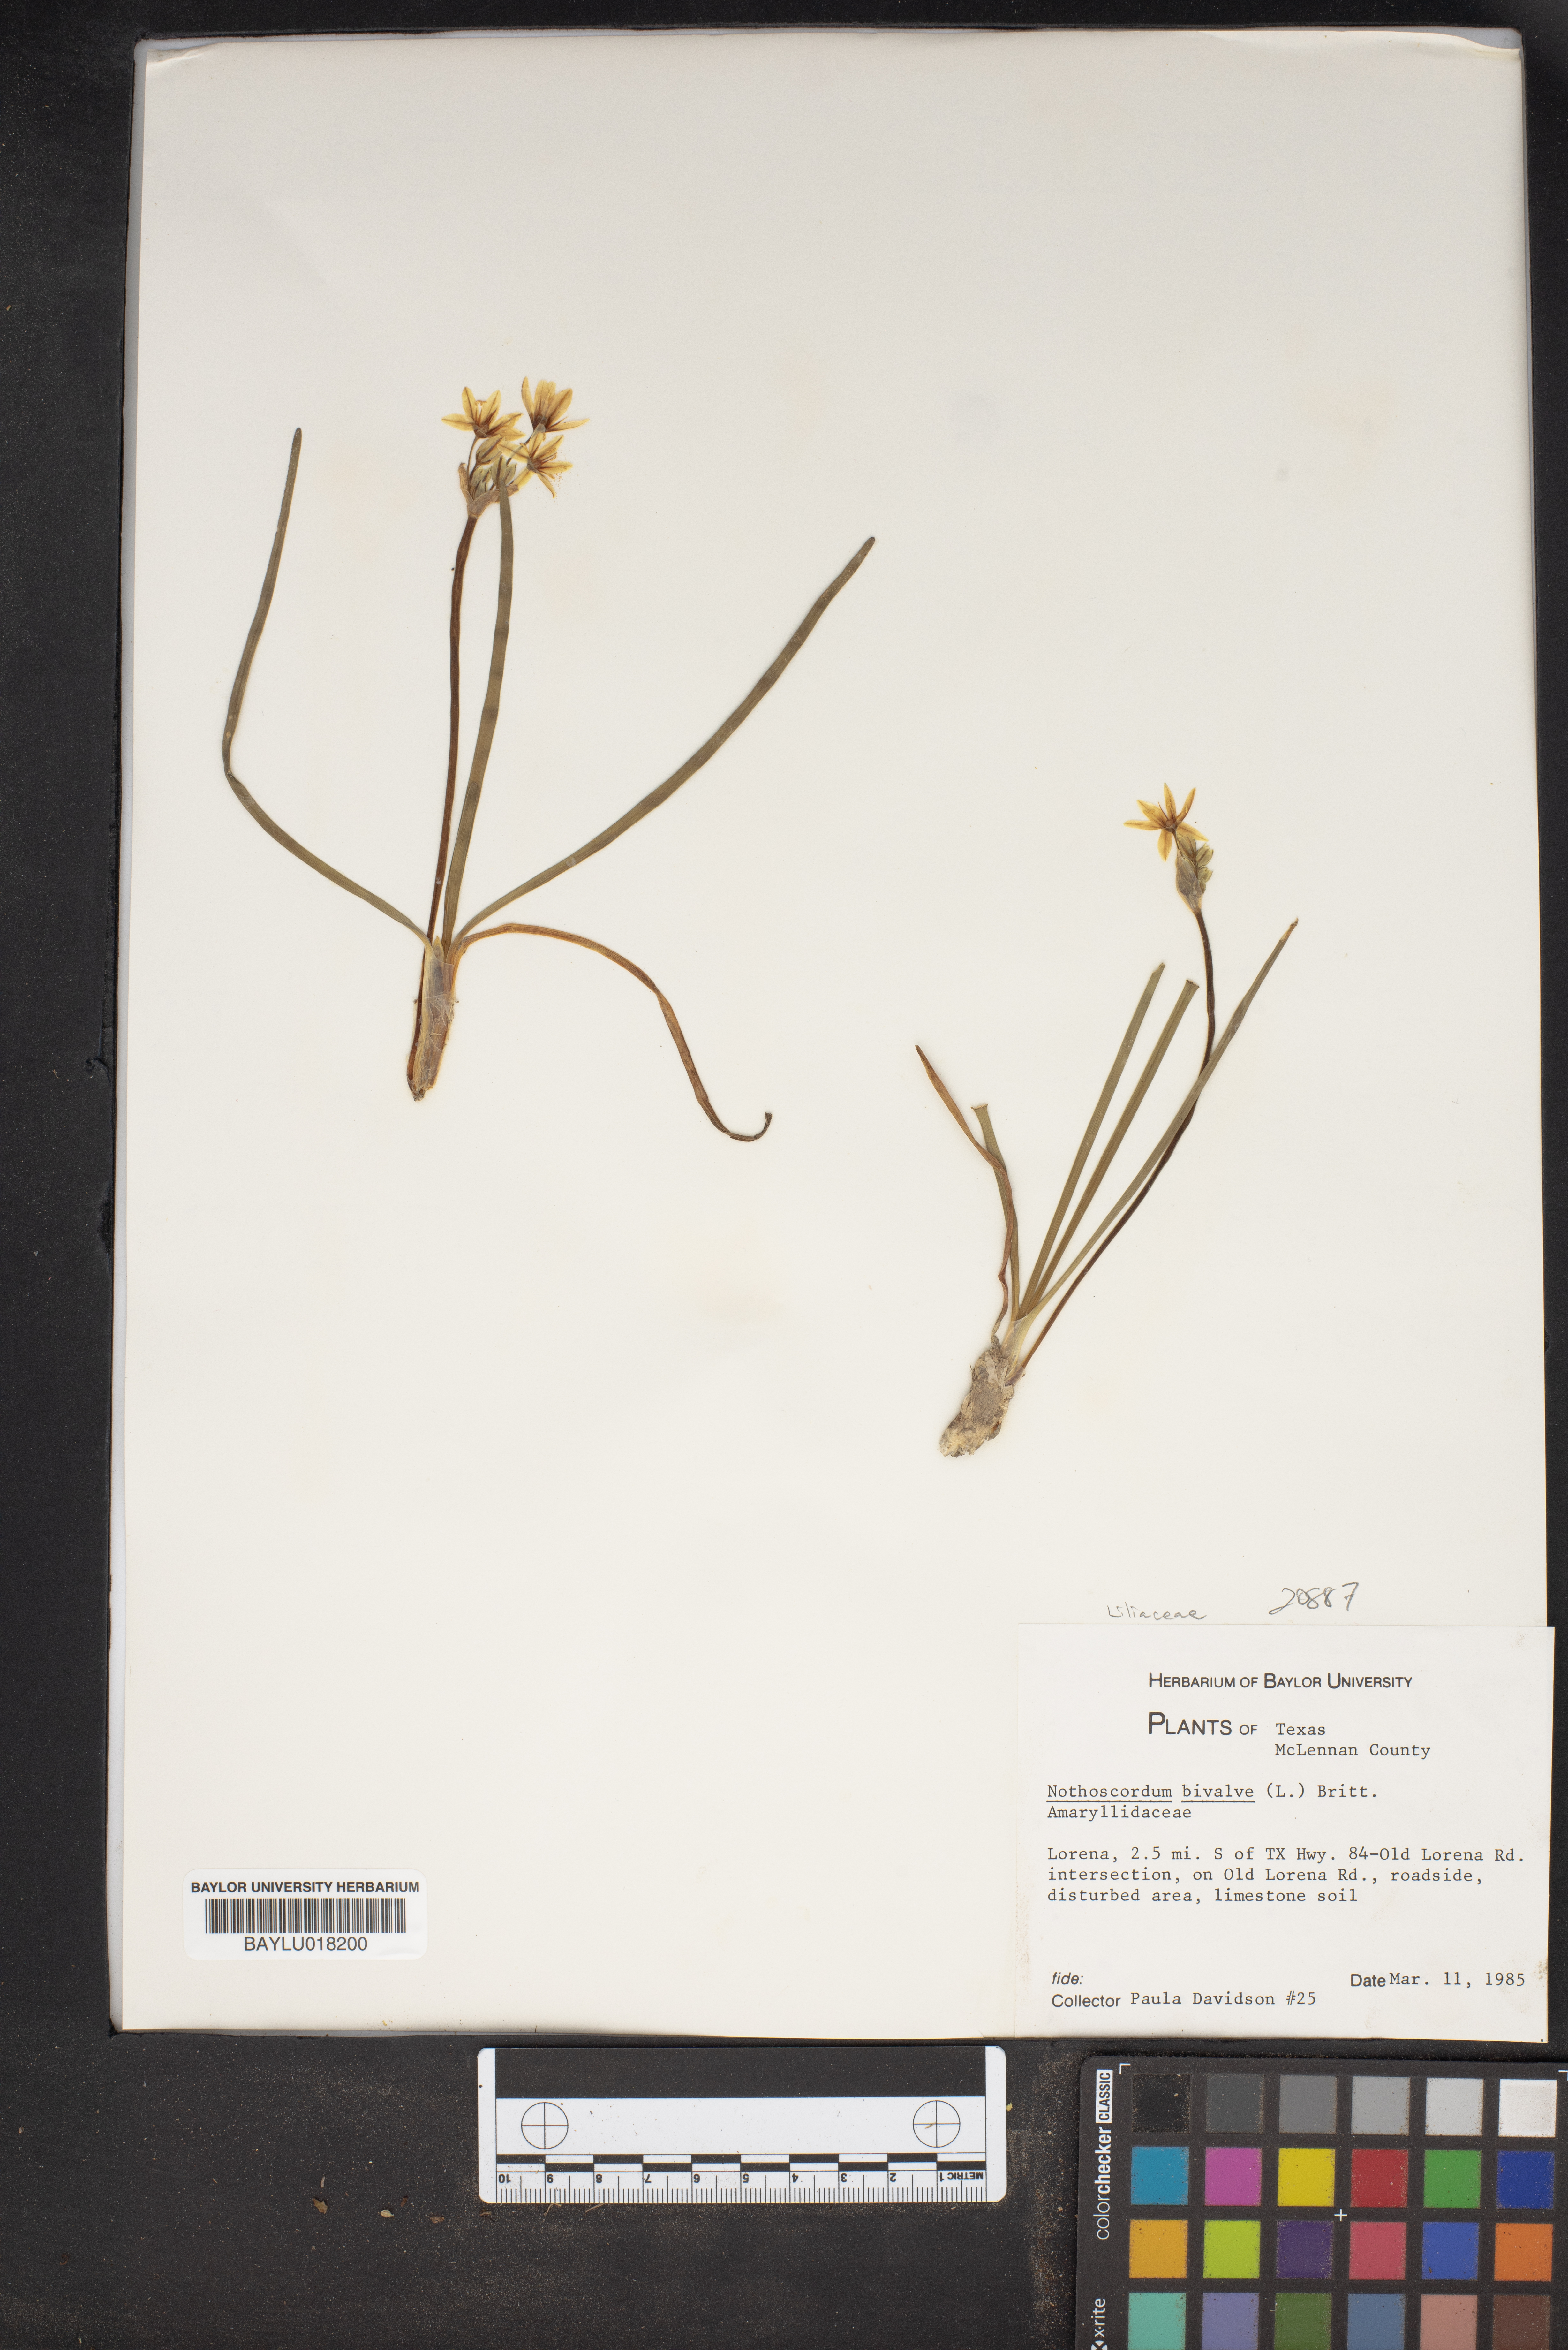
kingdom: Plantae
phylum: Tracheophyta
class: Liliopsida
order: Asparagales
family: Amaryllidaceae
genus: Nothoscordum
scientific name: Nothoscordum bivalve
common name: Crow-poison
